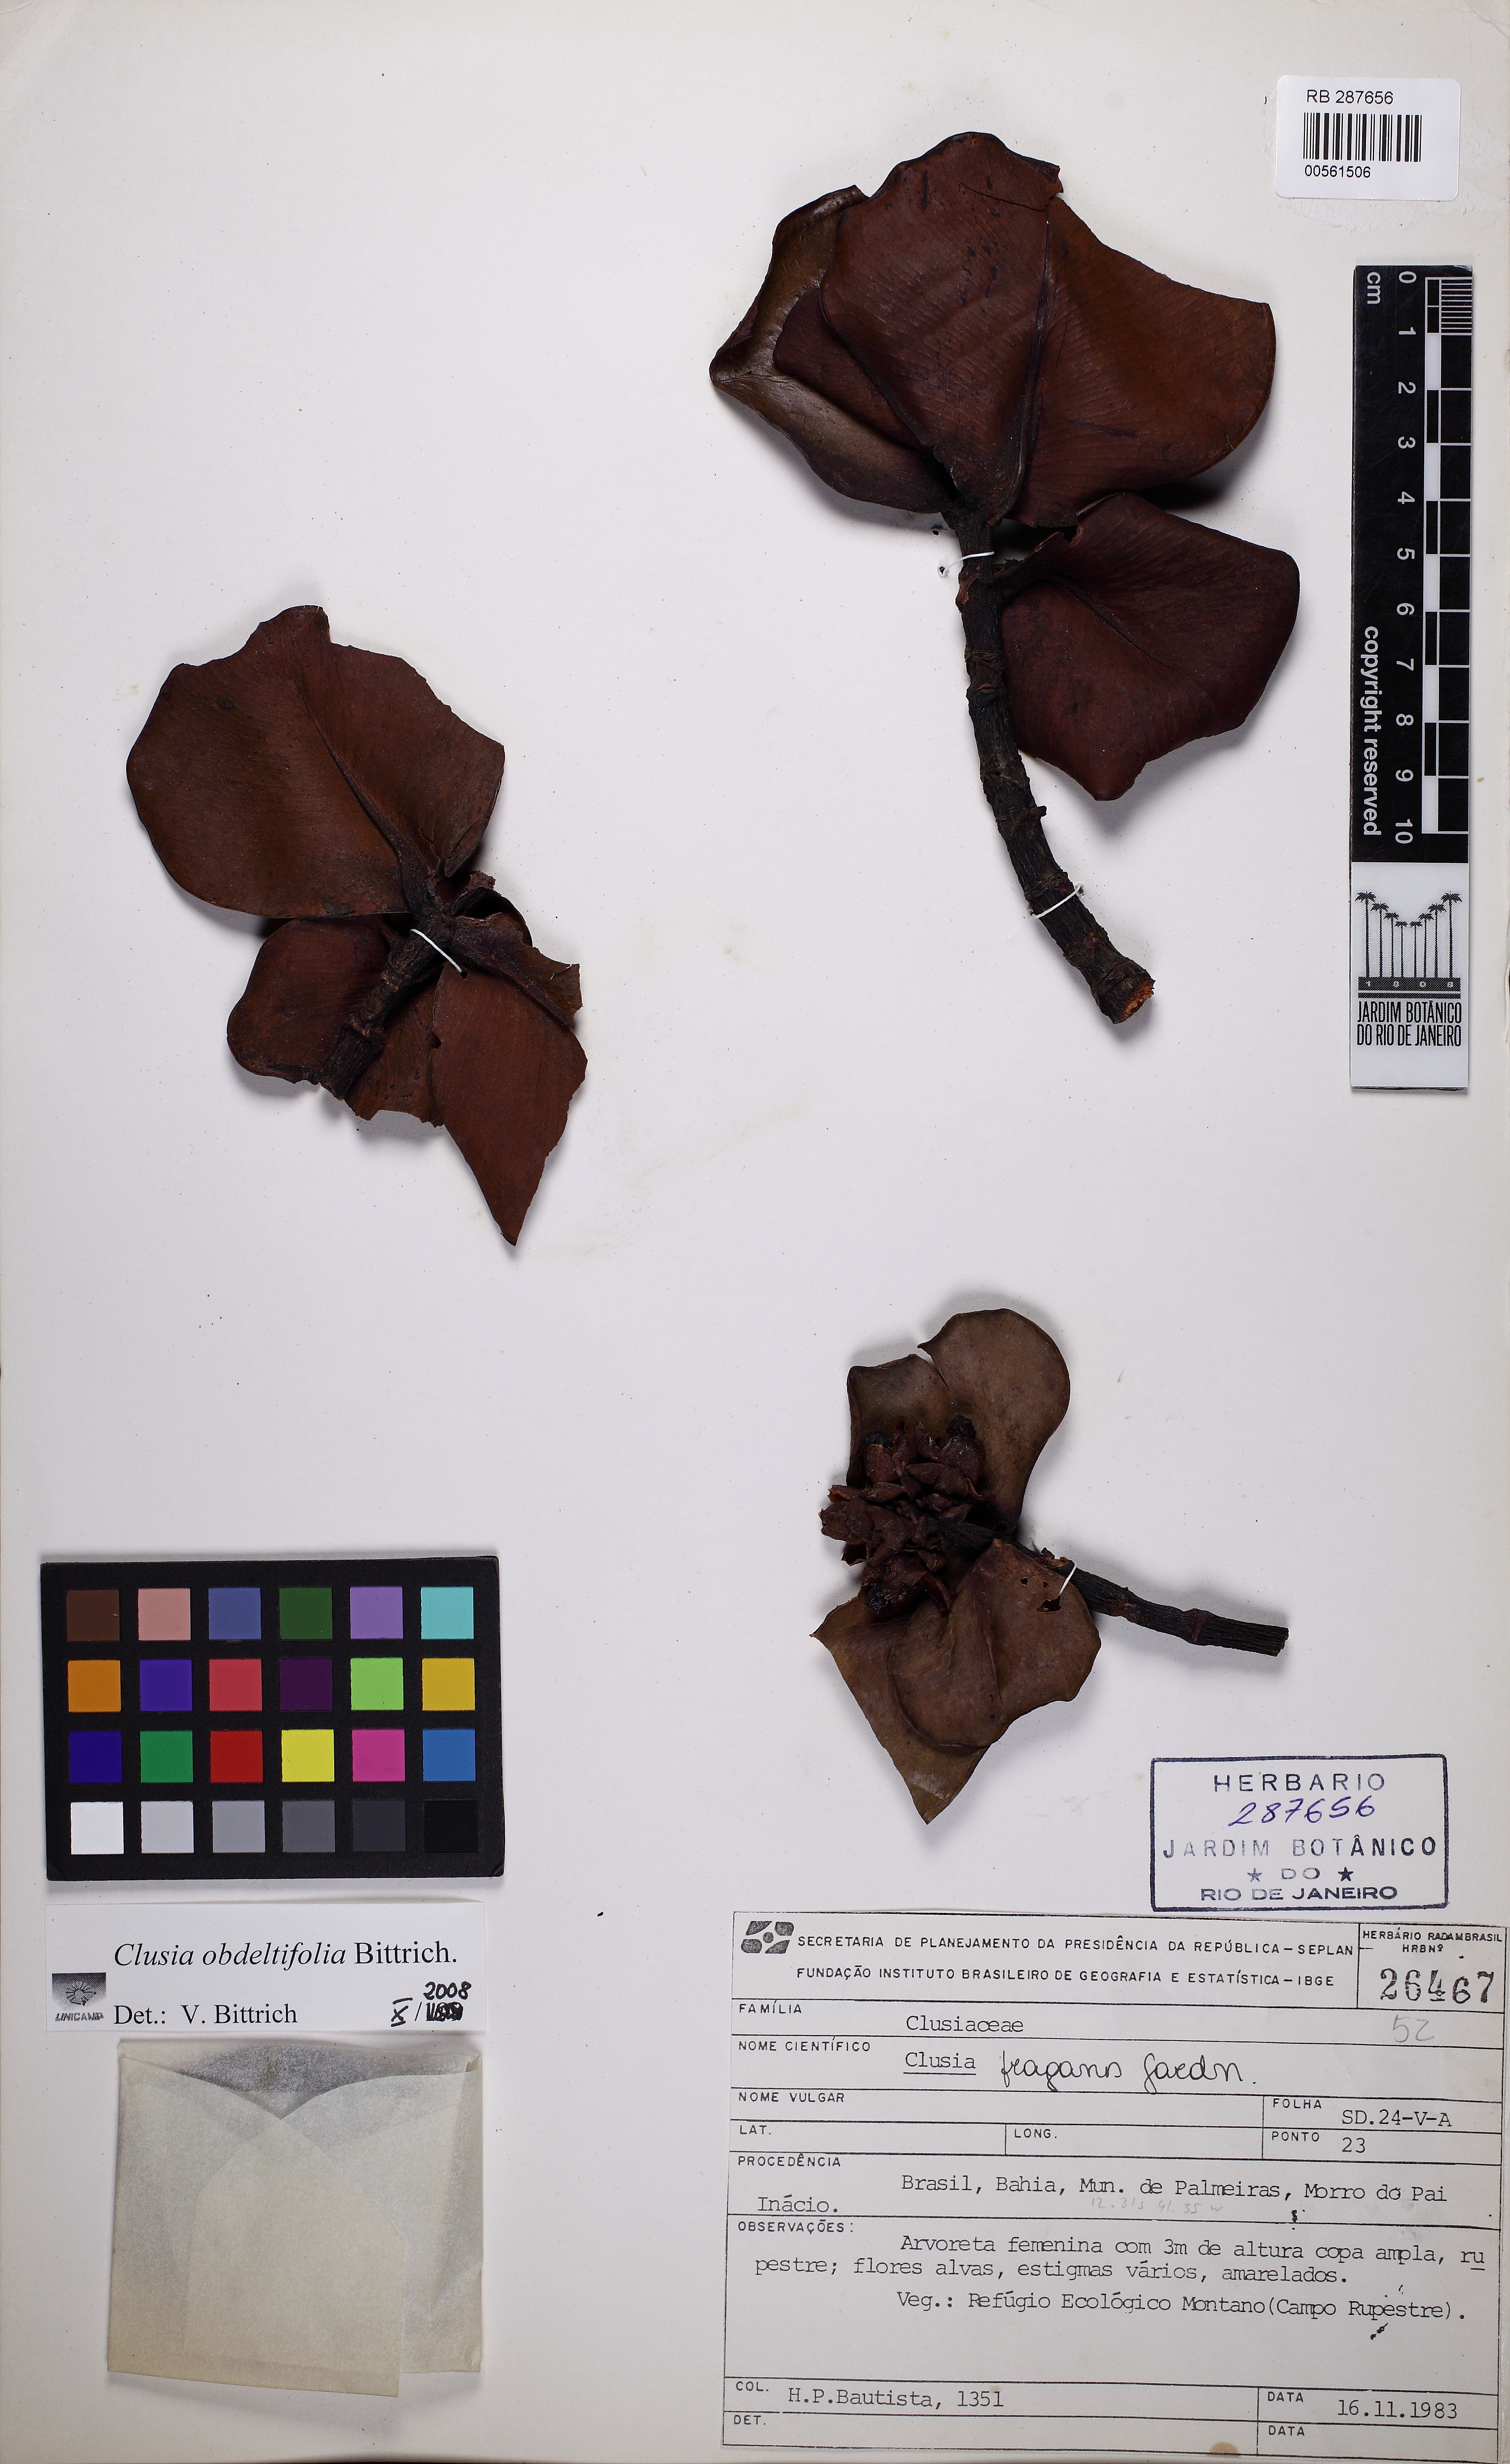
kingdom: Plantae
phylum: Tracheophyta
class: Magnoliopsida
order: Malpighiales
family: Clusiaceae
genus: Clusia
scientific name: Clusia obdeltifolia
